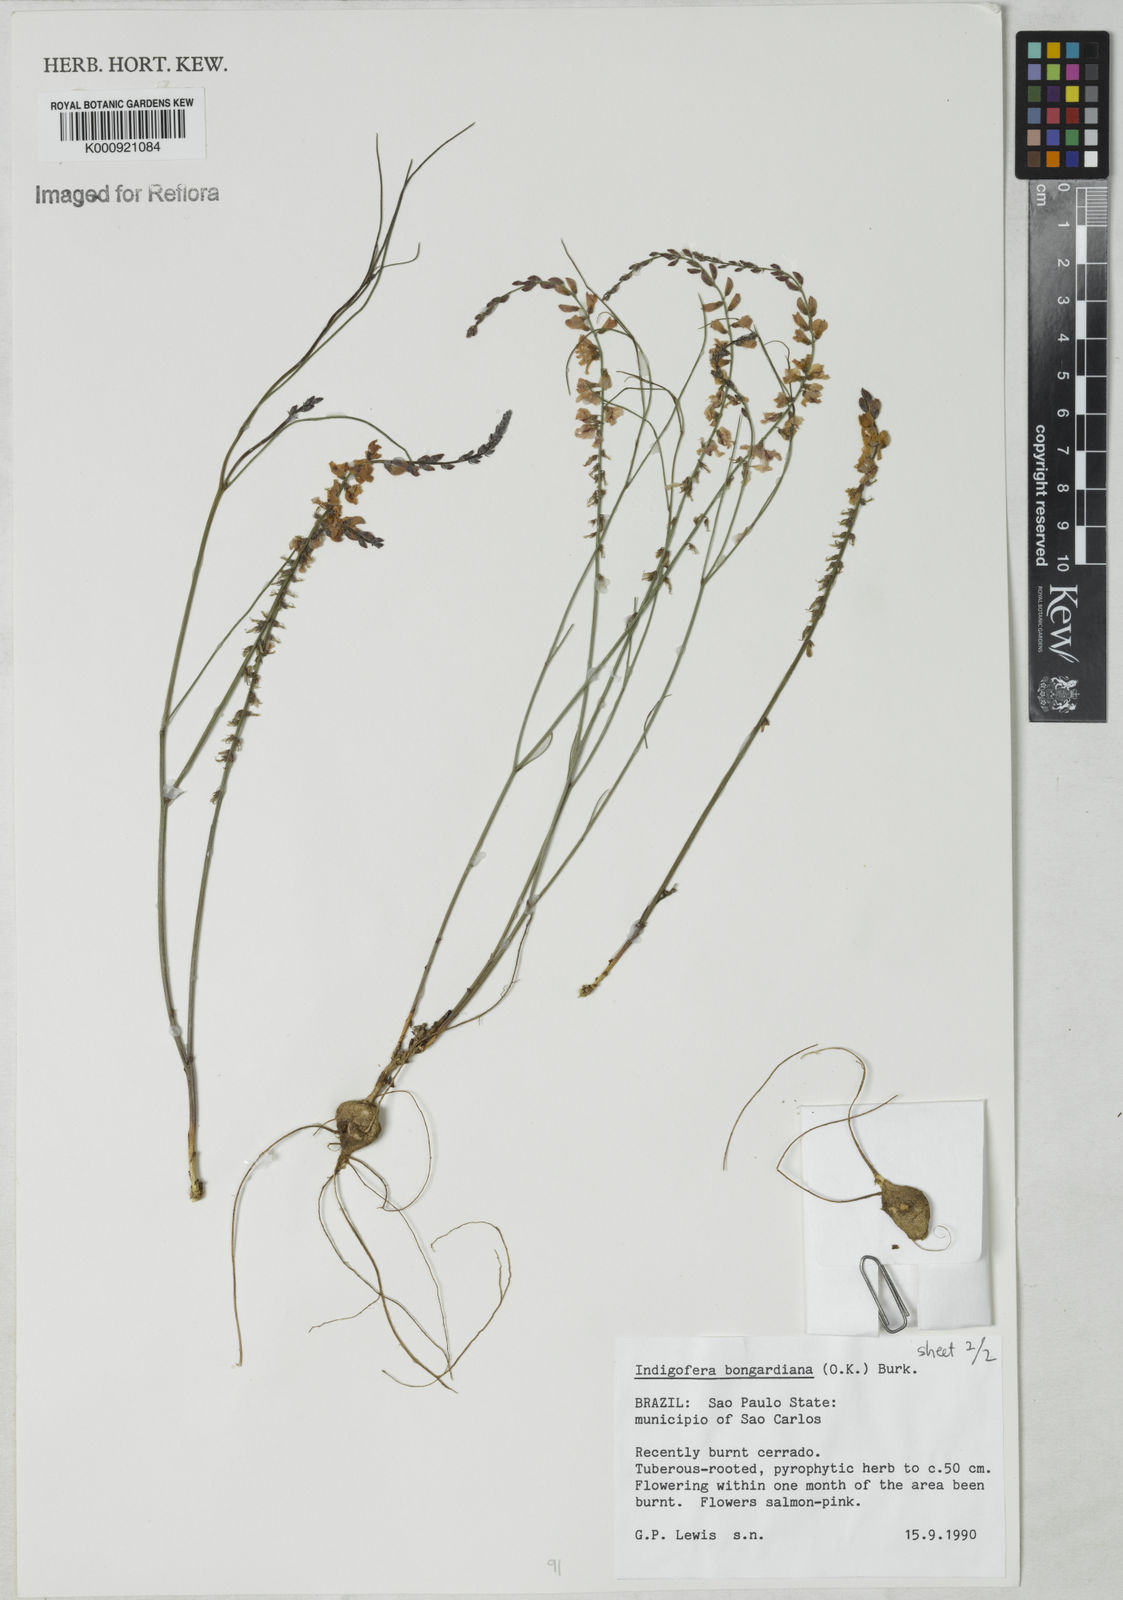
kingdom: Plantae
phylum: Tracheophyta
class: Magnoliopsida
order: Fabales
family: Fabaceae
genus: Indigofera
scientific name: Indigofera bongardiana
